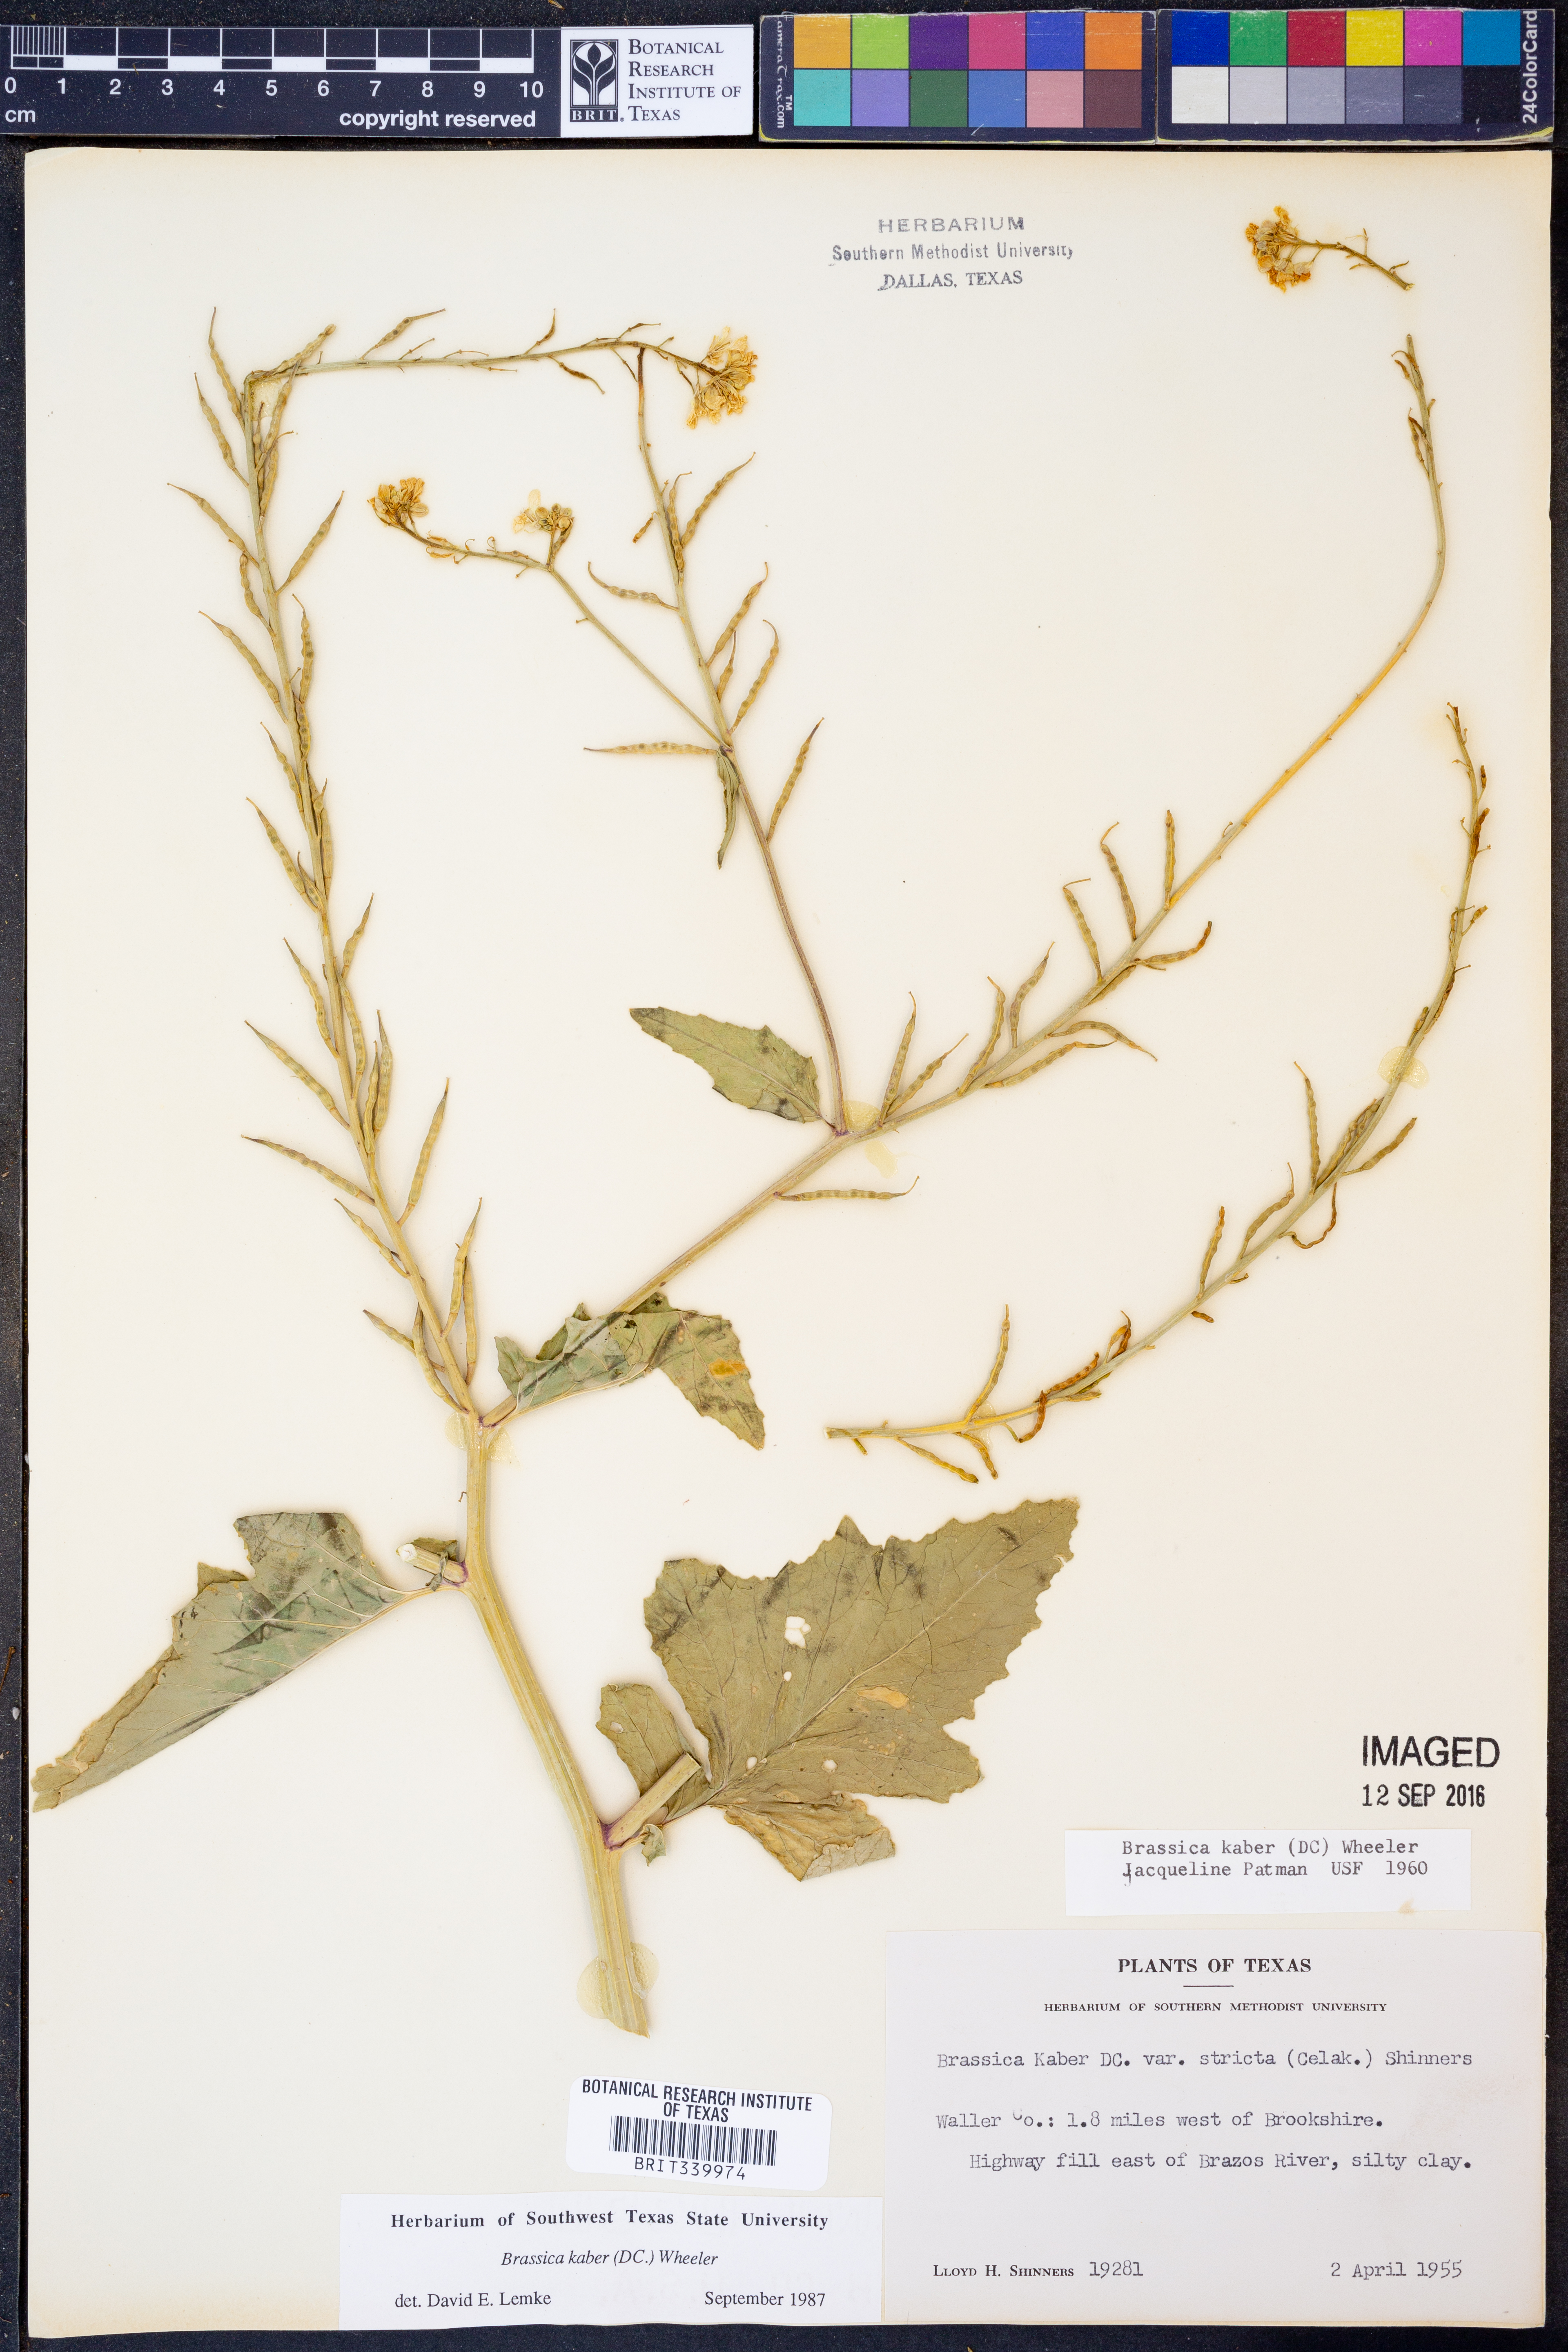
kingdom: Plantae
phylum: Tracheophyta
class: Magnoliopsida
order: Brassicales
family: Brassicaceae
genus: Sinapis
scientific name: Sinapis arvensis
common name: Charlock
